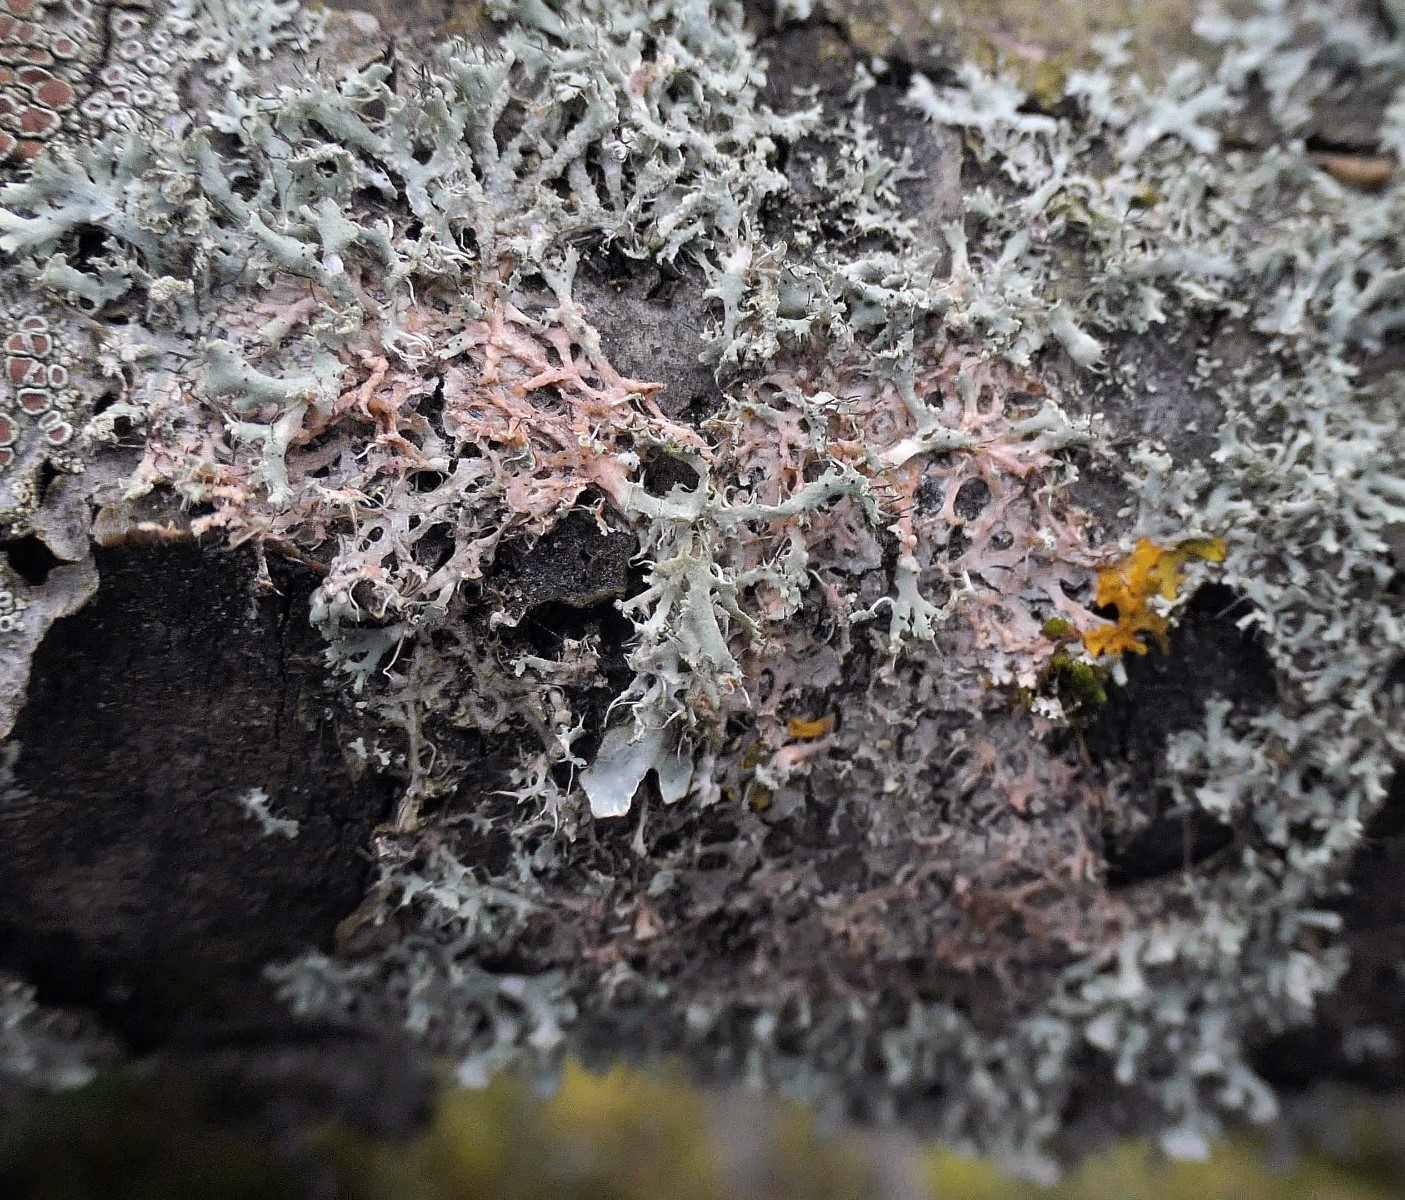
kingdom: Fungi
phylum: Basidiomycota
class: Agaricomycetes
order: Corticiales
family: Corticiaceae
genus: Erythricium
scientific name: Erythricium aurantiacum
